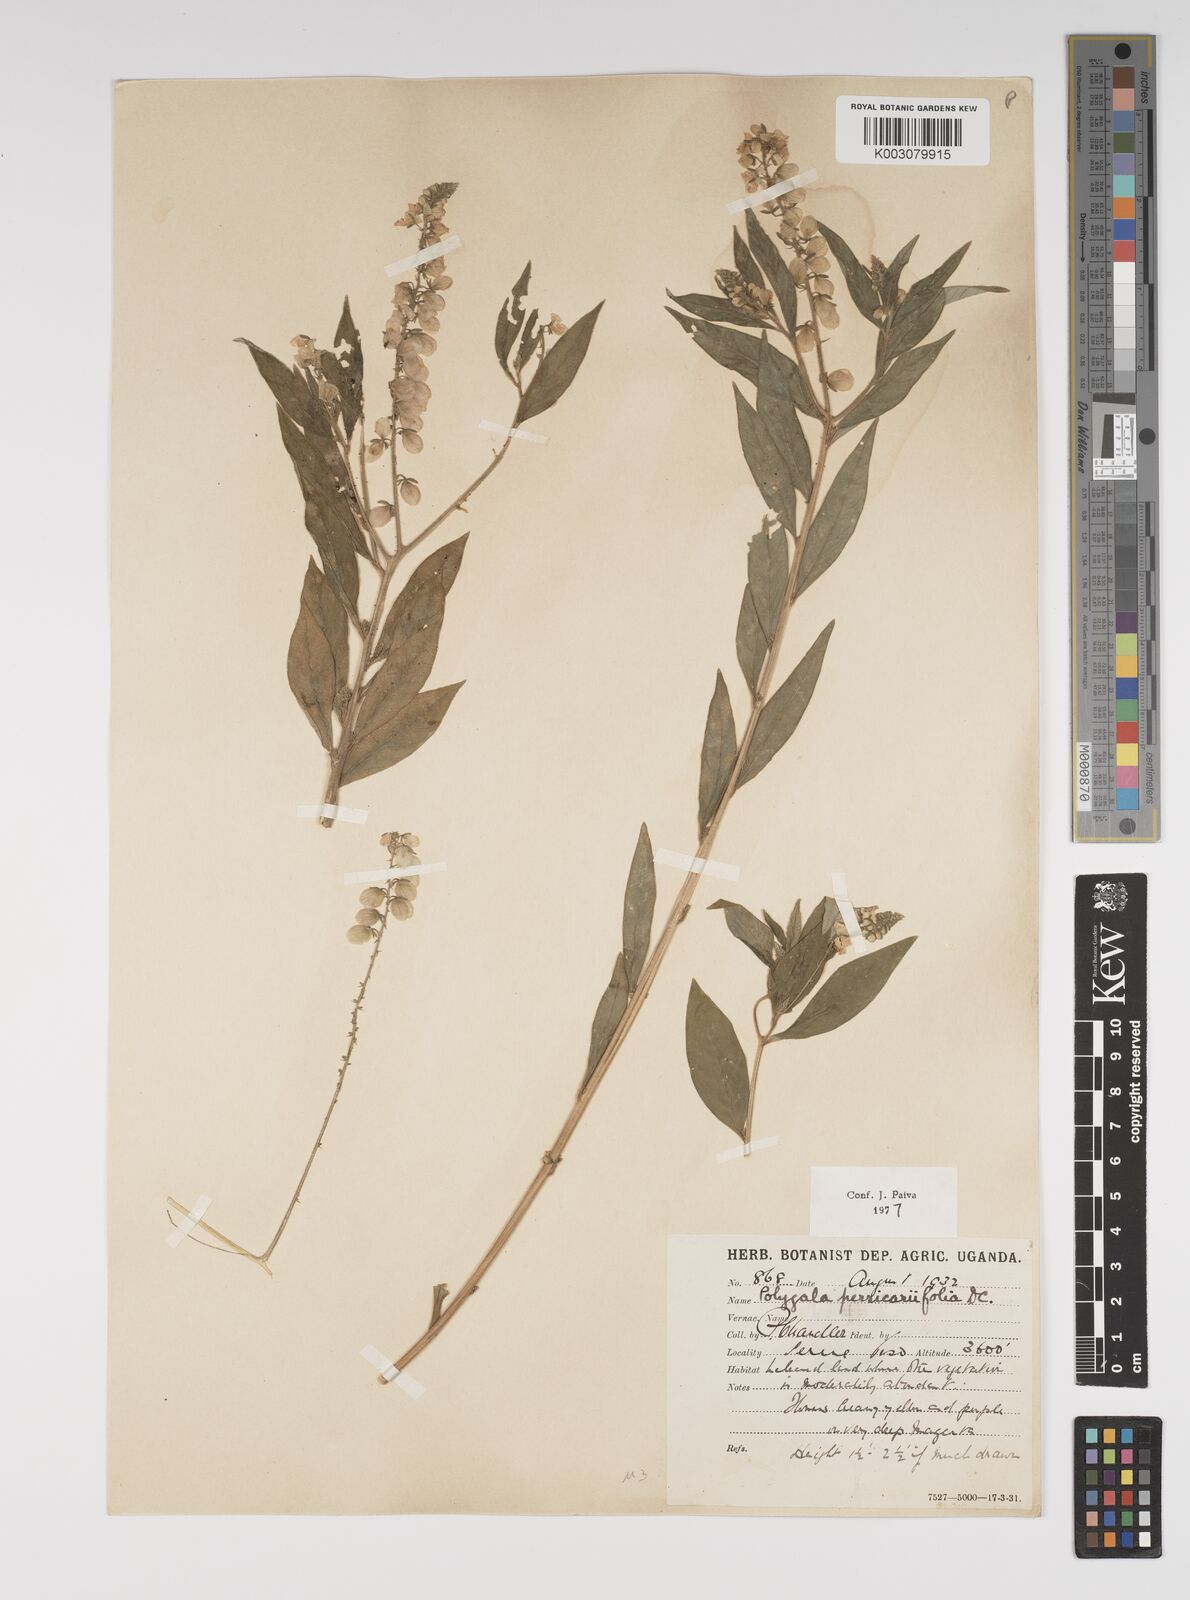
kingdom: Plantae
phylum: Tracheophyta
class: Magnoliopsida
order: Fabales
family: Polygalaceae
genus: Polygala
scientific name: Polygala persicariifolia
